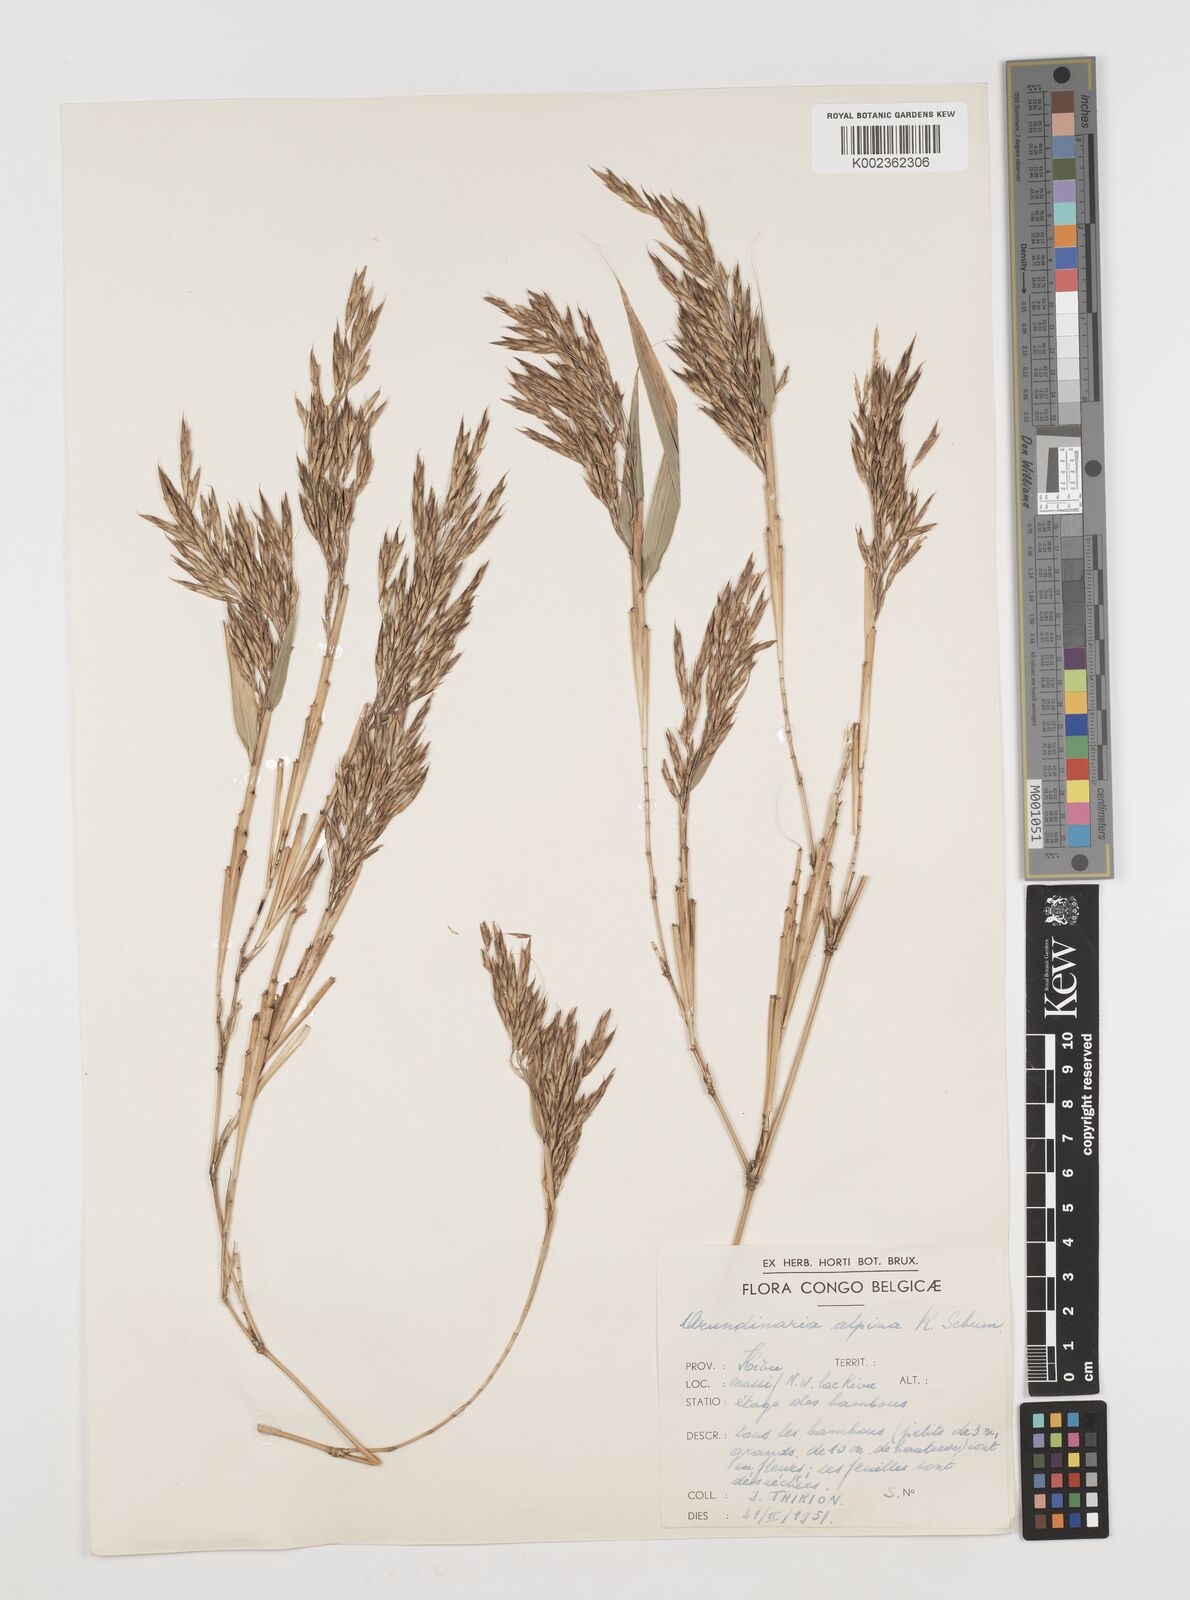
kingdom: Plantae
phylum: Tracheophyta
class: Liliopsida
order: Poales
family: Poaceae
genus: Oldeania
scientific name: Oldeania alpina
